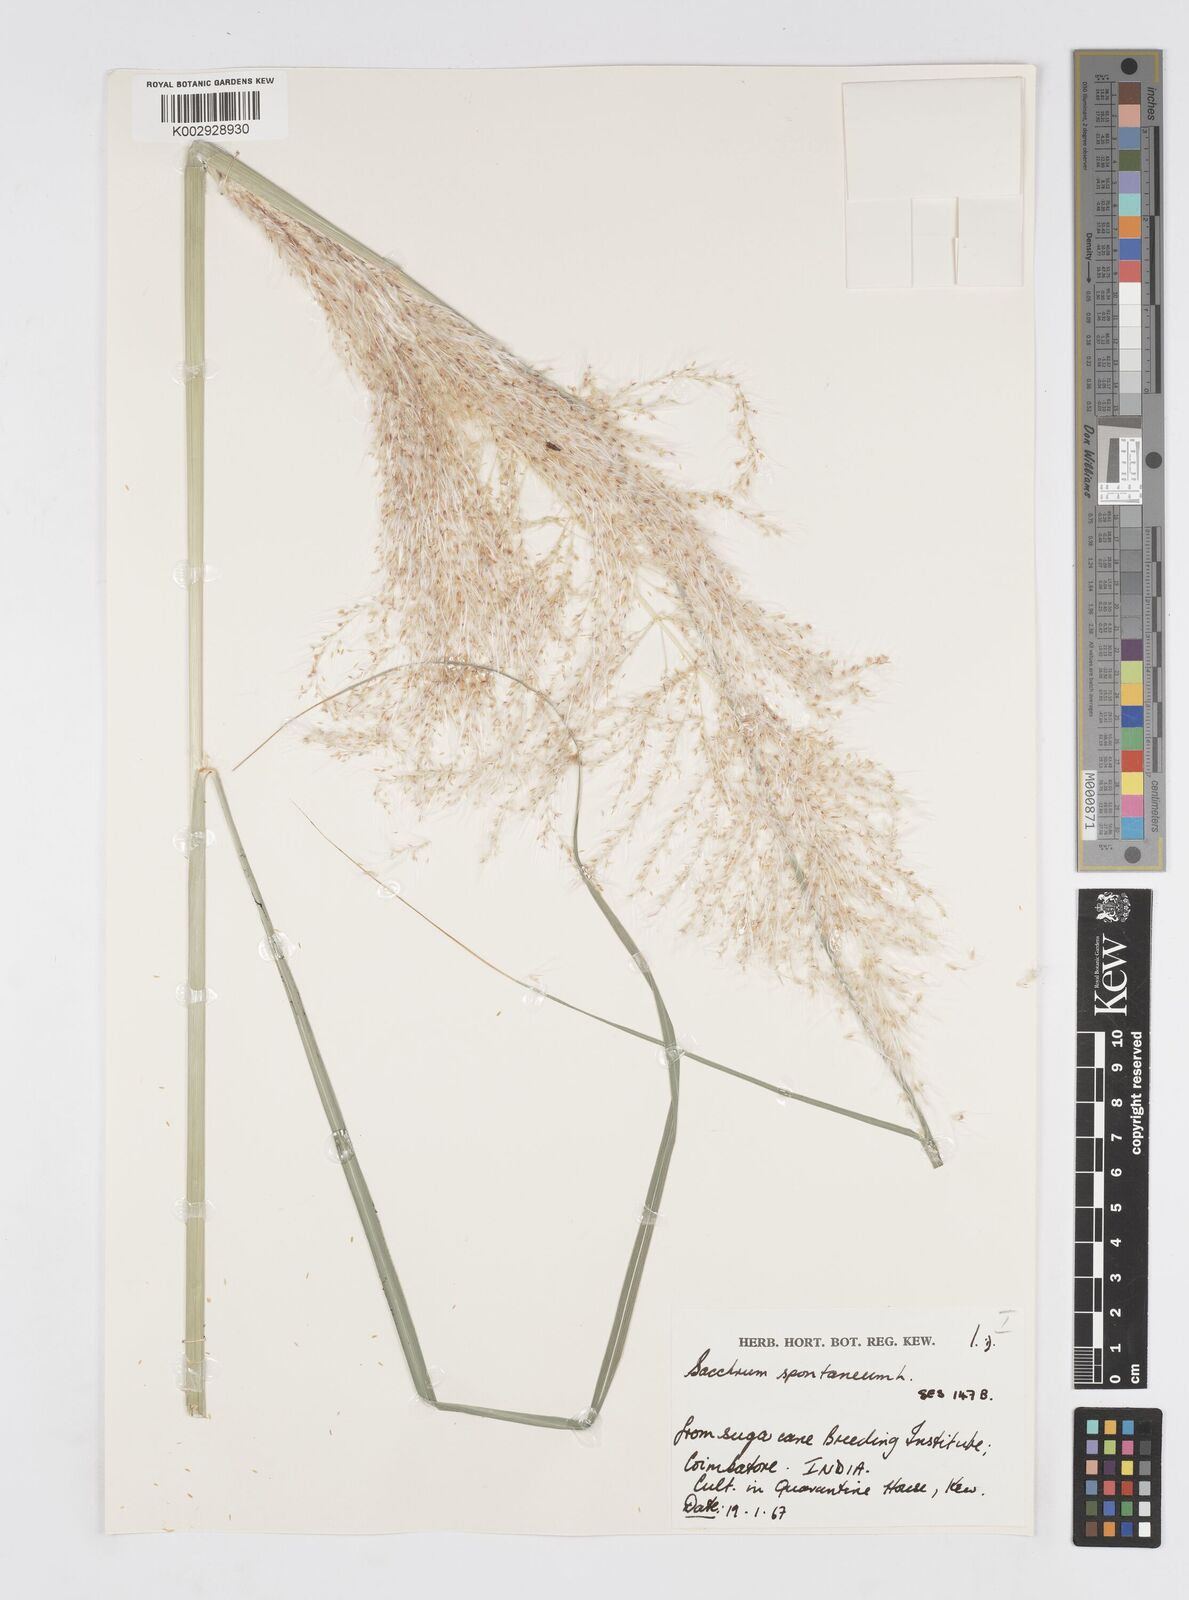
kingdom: Plantae
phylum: Tracheophyta
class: Liliopsida
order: Poales
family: Poaceae
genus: Saccharum
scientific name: Saccharum spontaneum
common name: Wild sugarcane
